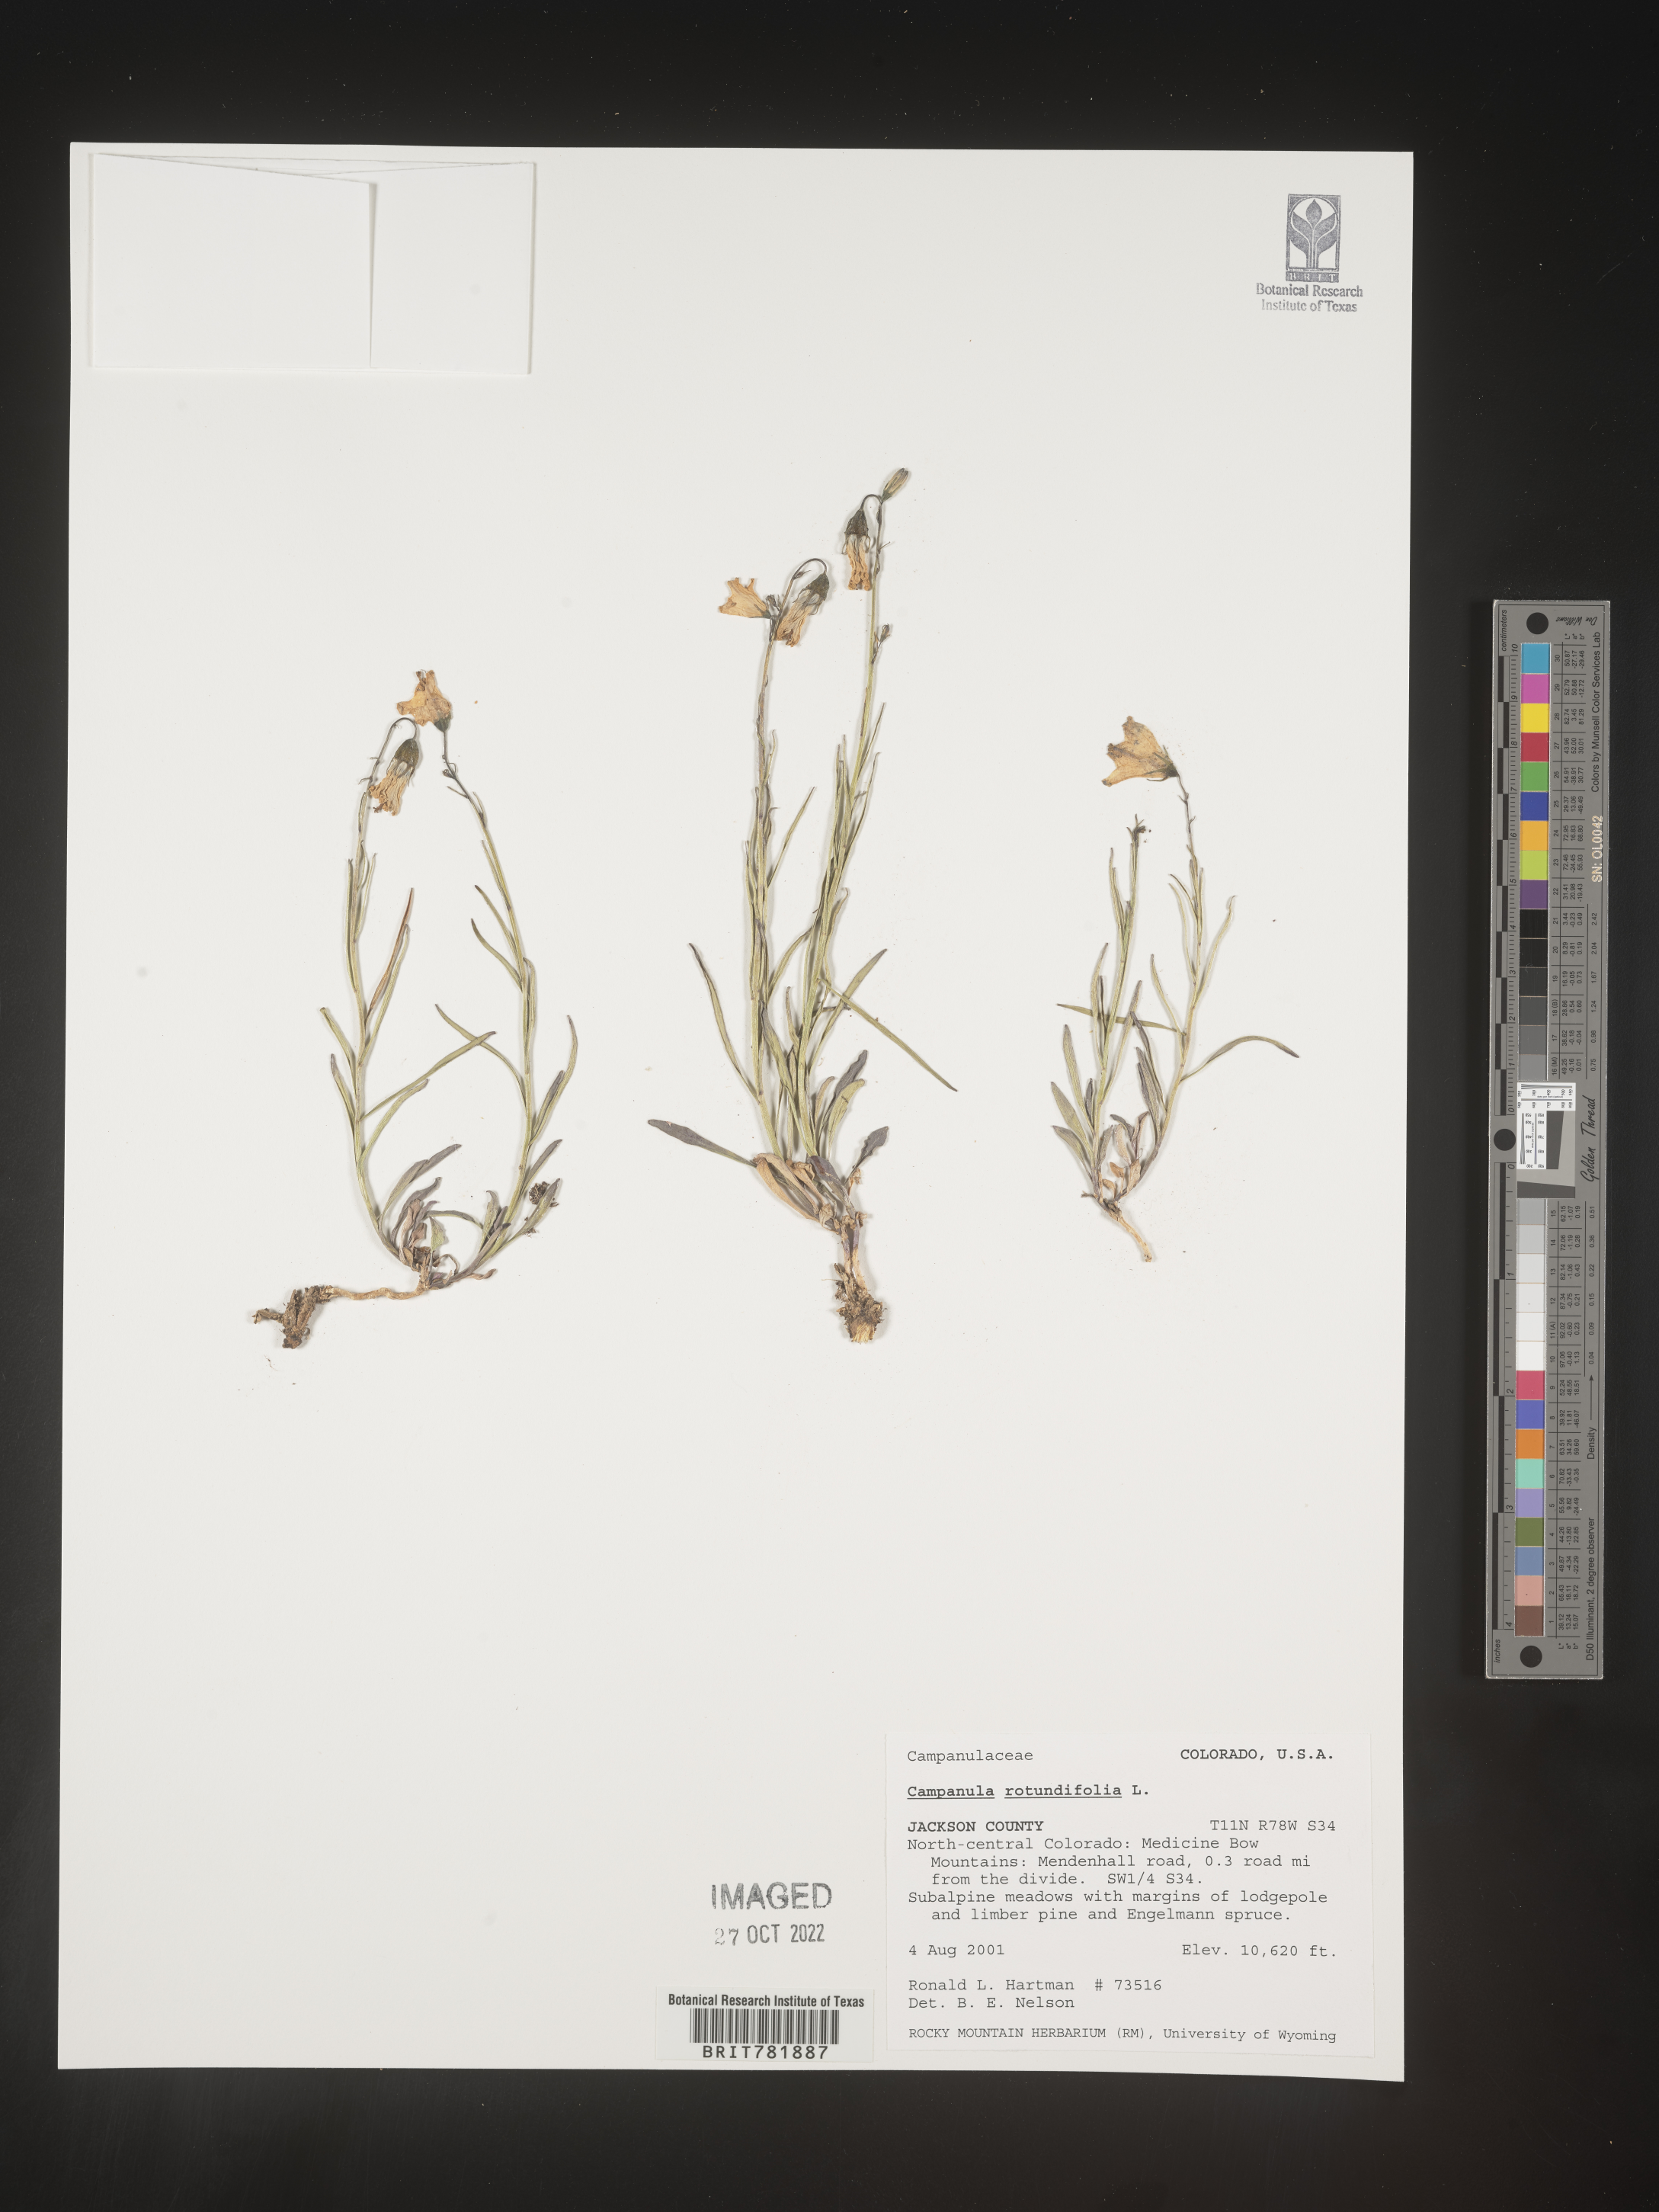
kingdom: Plantae
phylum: Tracheophyta
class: Magnoliopsida
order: Asterales
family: Campanulaceae
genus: Campanula
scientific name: Campanula rotundifolia
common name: Harebell
